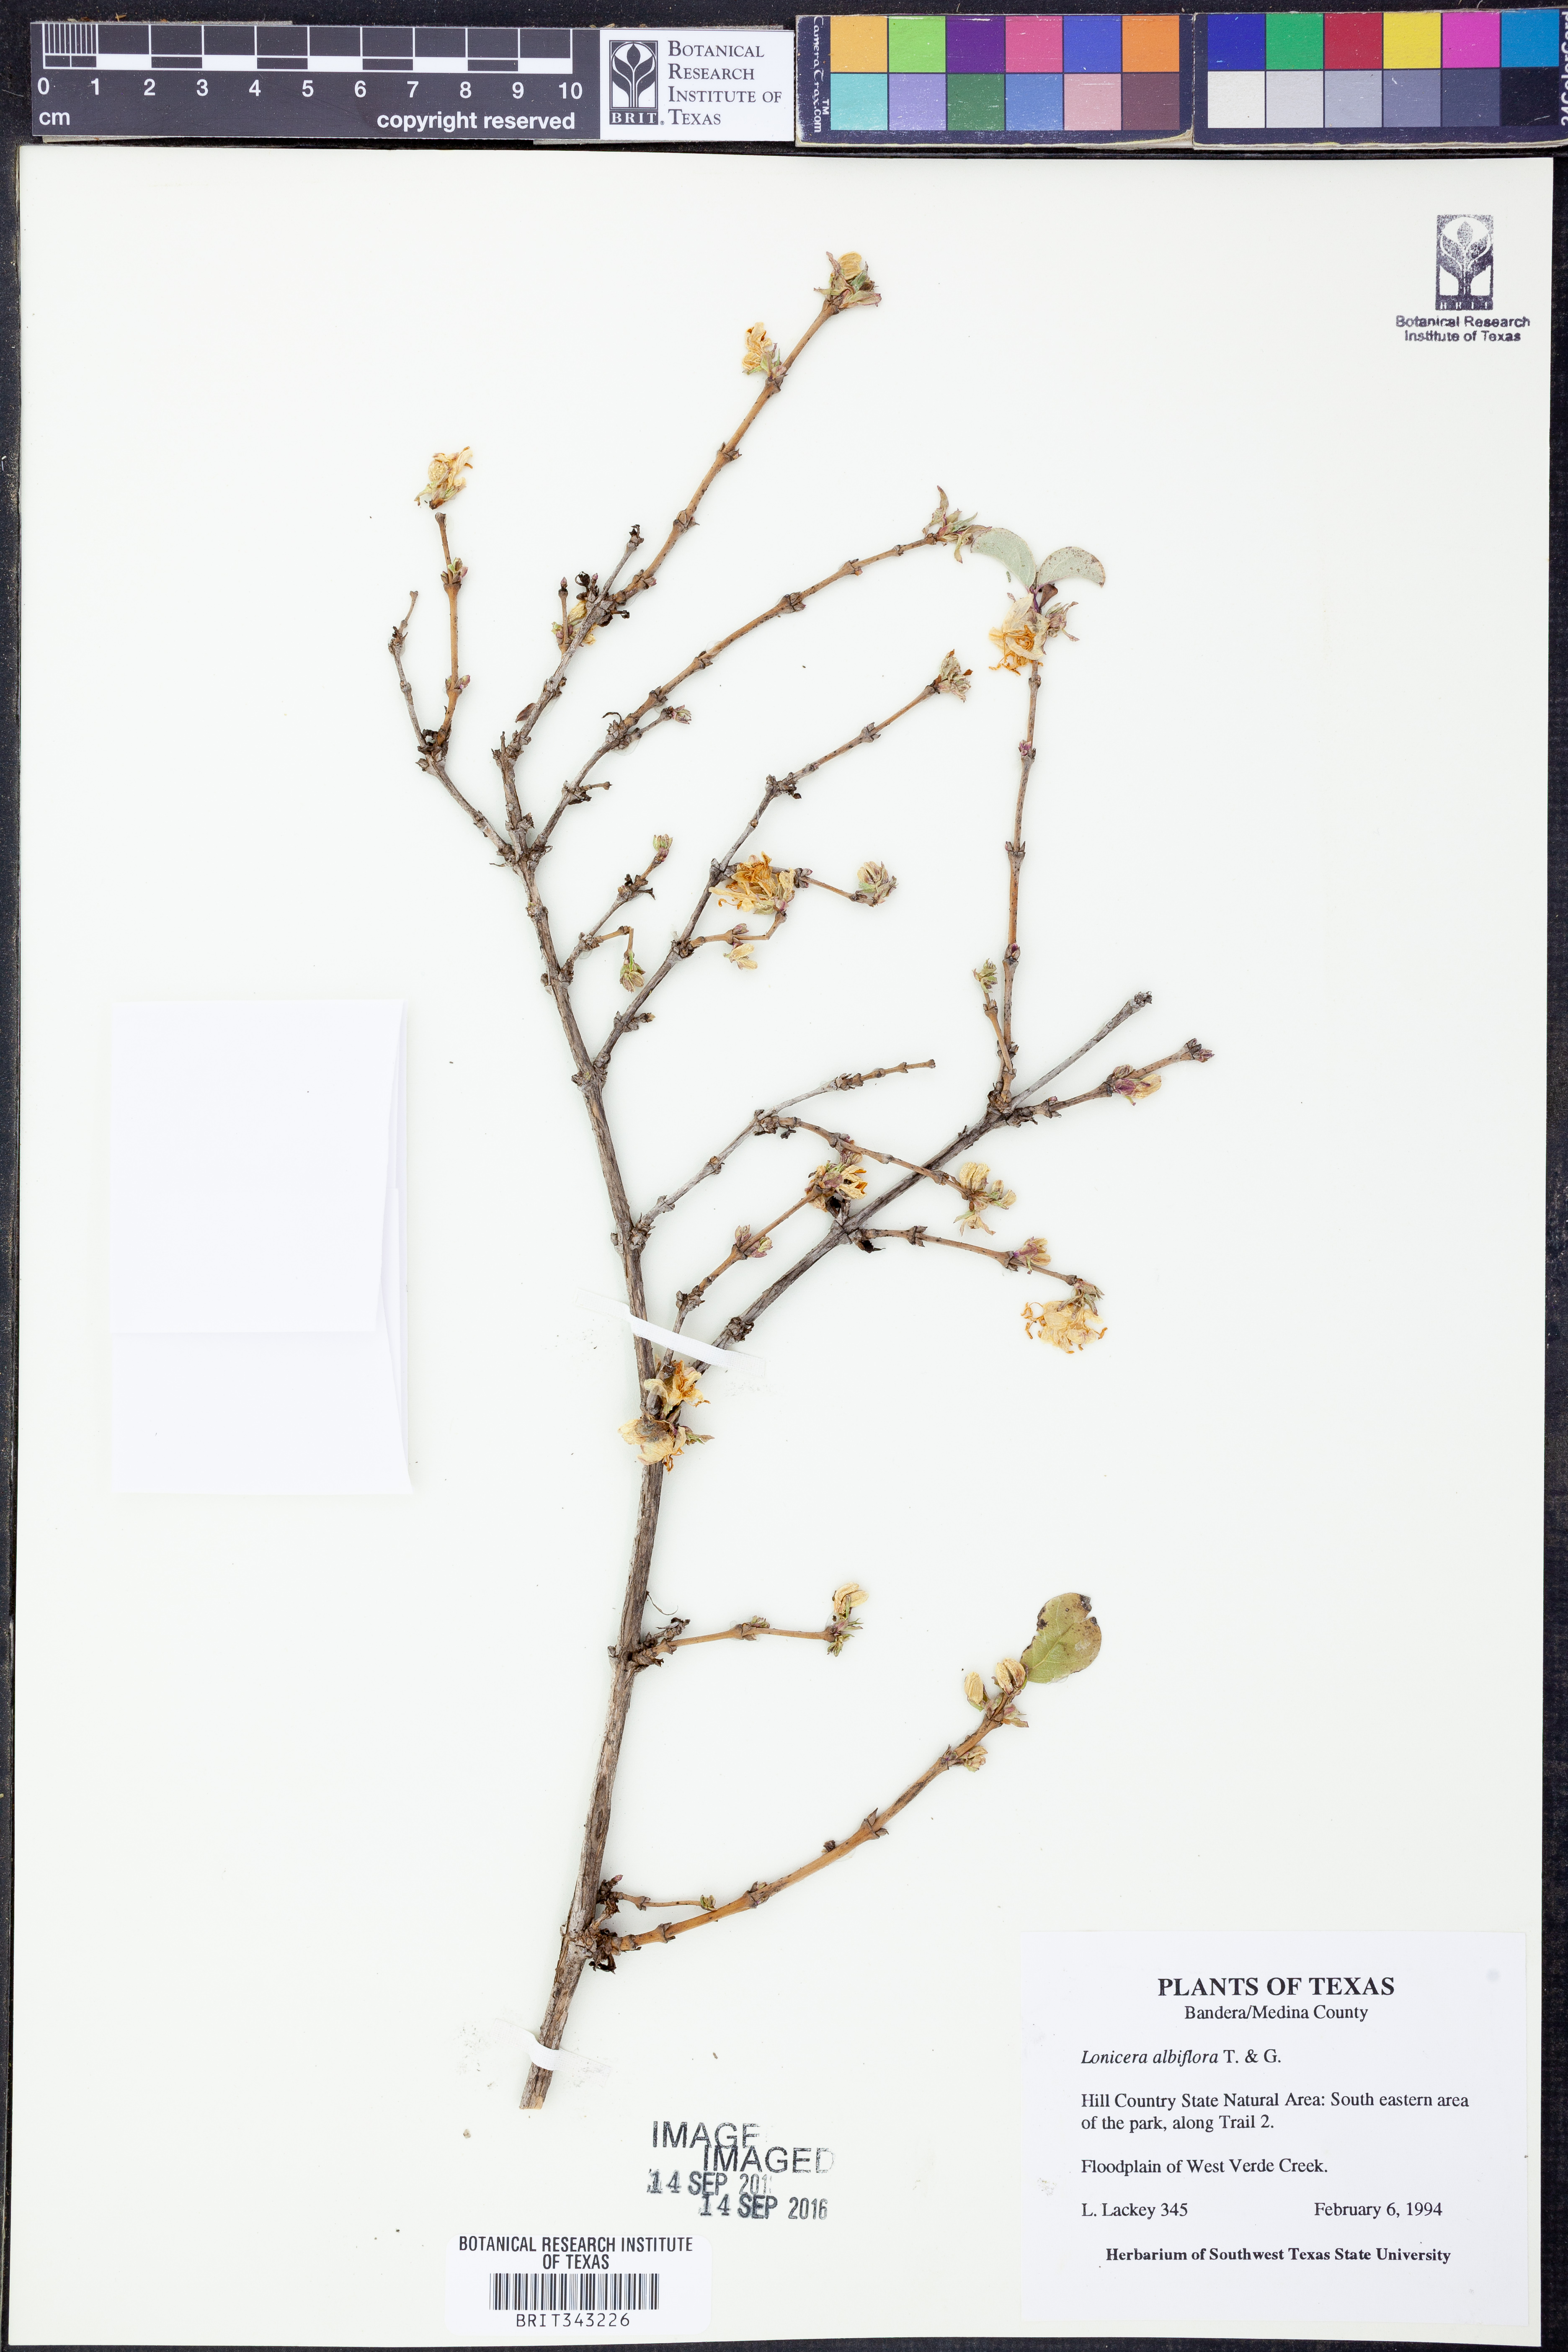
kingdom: Plantae
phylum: Tracheophyta
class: Magnoliopsida
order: Dipsacales
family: Caprifoliaceae
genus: Lonicera
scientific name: Lonicera albiflora
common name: White honeysuckle
